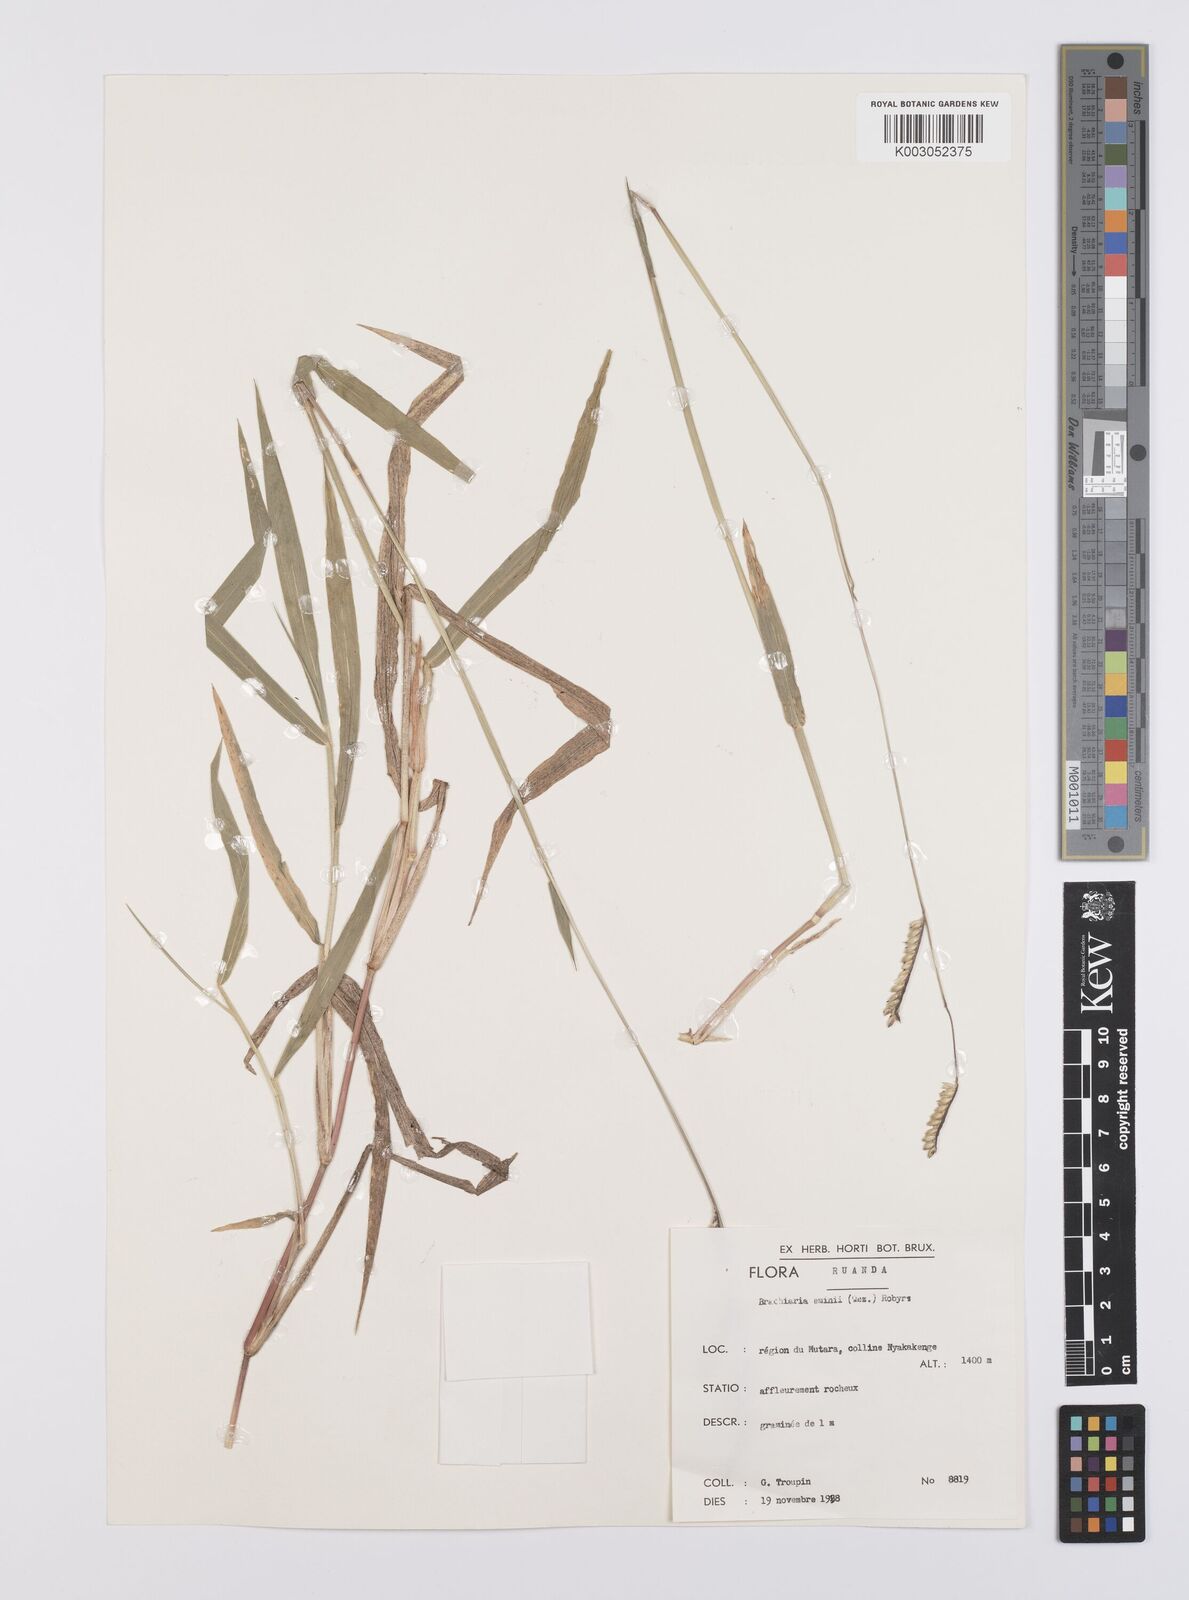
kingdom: Plantae
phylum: Tracheophyta
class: Liliopsida
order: Poales
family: Poaceae
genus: Urochloa
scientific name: Urochloa eminii
